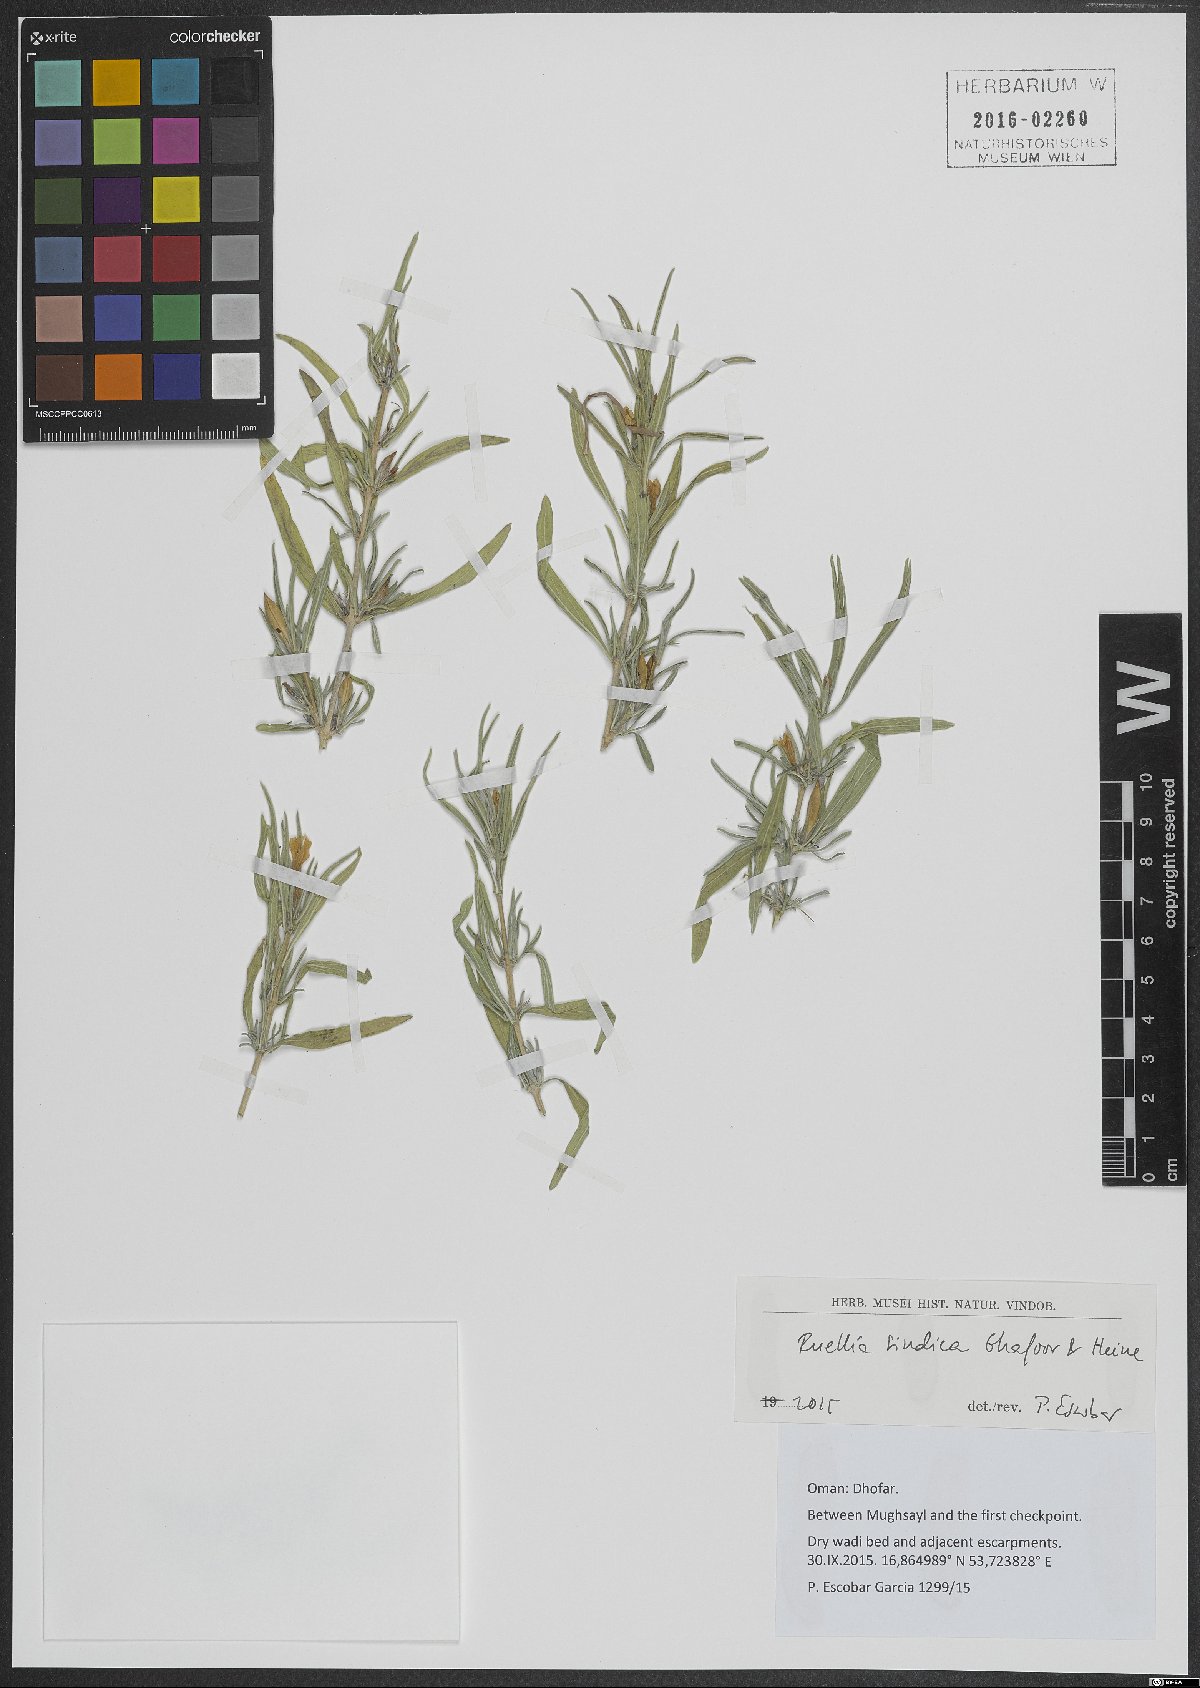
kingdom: Plantae
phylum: Tracheophyta
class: Magnoliopsida
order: Lamiales
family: Acanthaceae
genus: Ruellia
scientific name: Ruellia linearibracteolata
